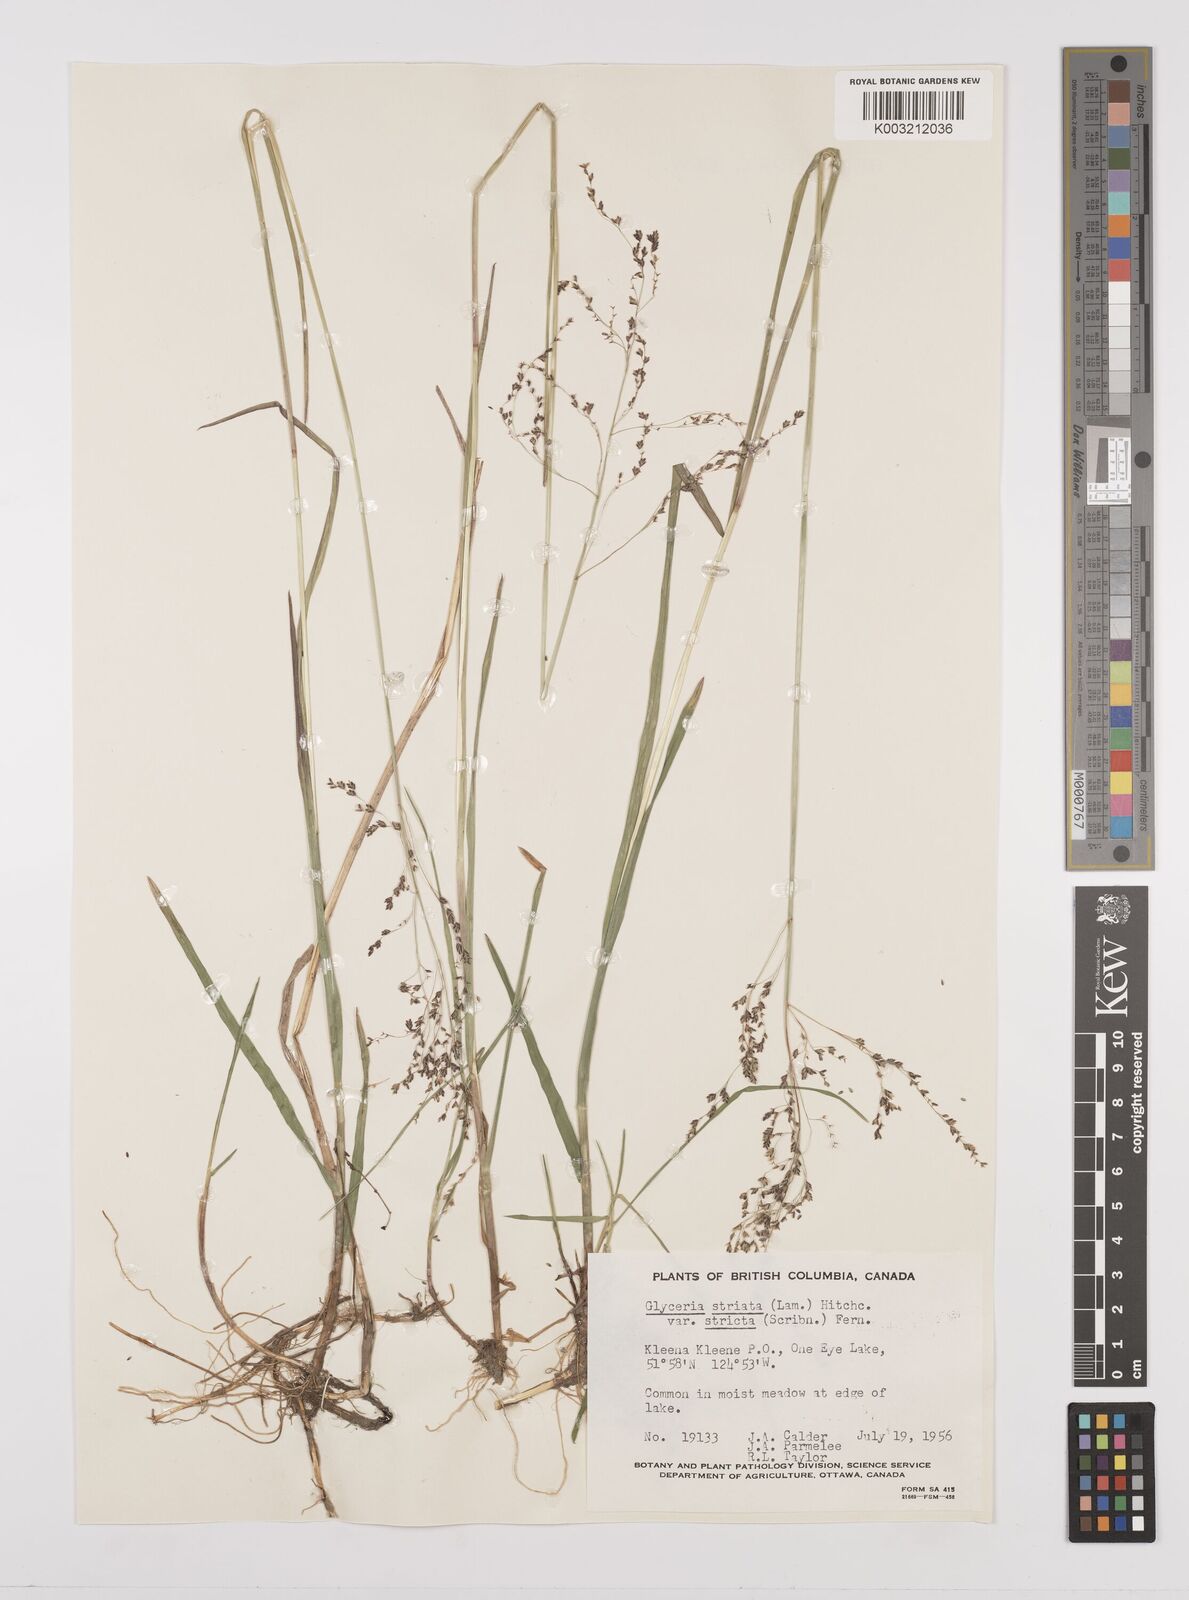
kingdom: Plantae
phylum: Tracheophyta
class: Liliopsida
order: Poales
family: Poaceae
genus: Glyceria
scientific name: Glyceria striata
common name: Fowl manna grass
